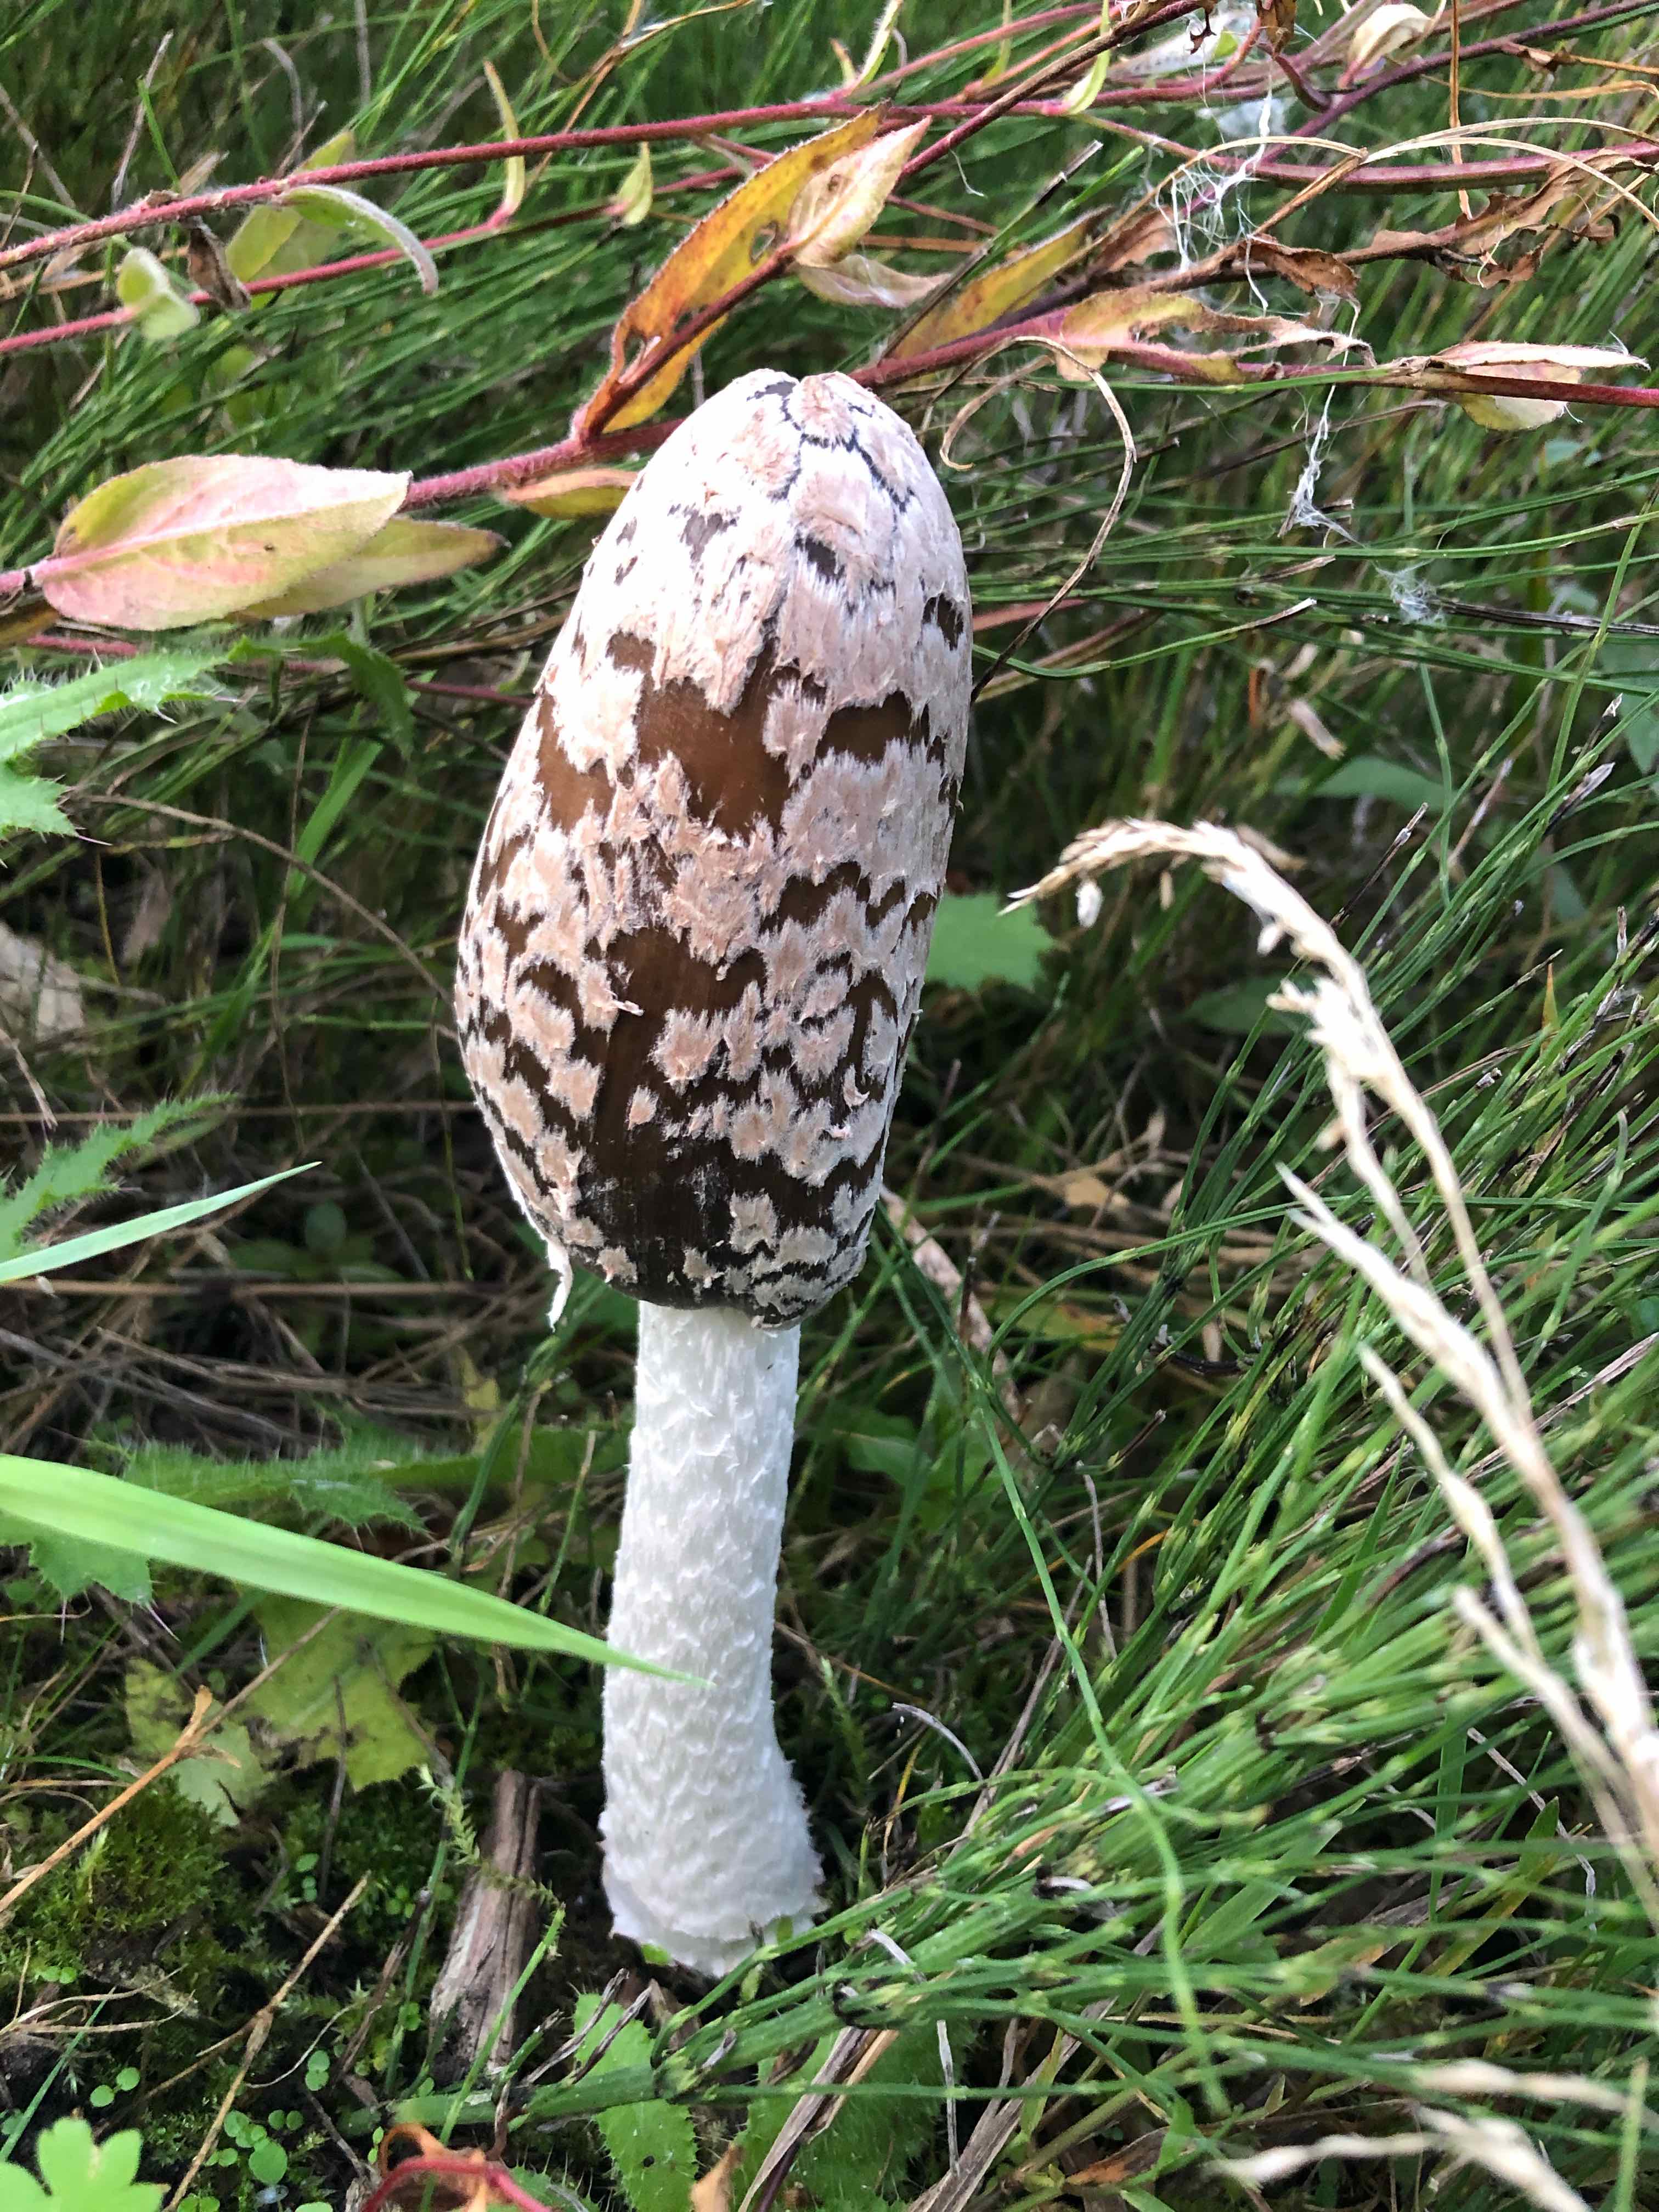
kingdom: Fungi
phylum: Basidiomycota
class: Agaricomycetes
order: Agaricales
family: Psathyrellaceae
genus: Coprinopsis
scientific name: Coprinopsis picacea
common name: skade-blækhat
